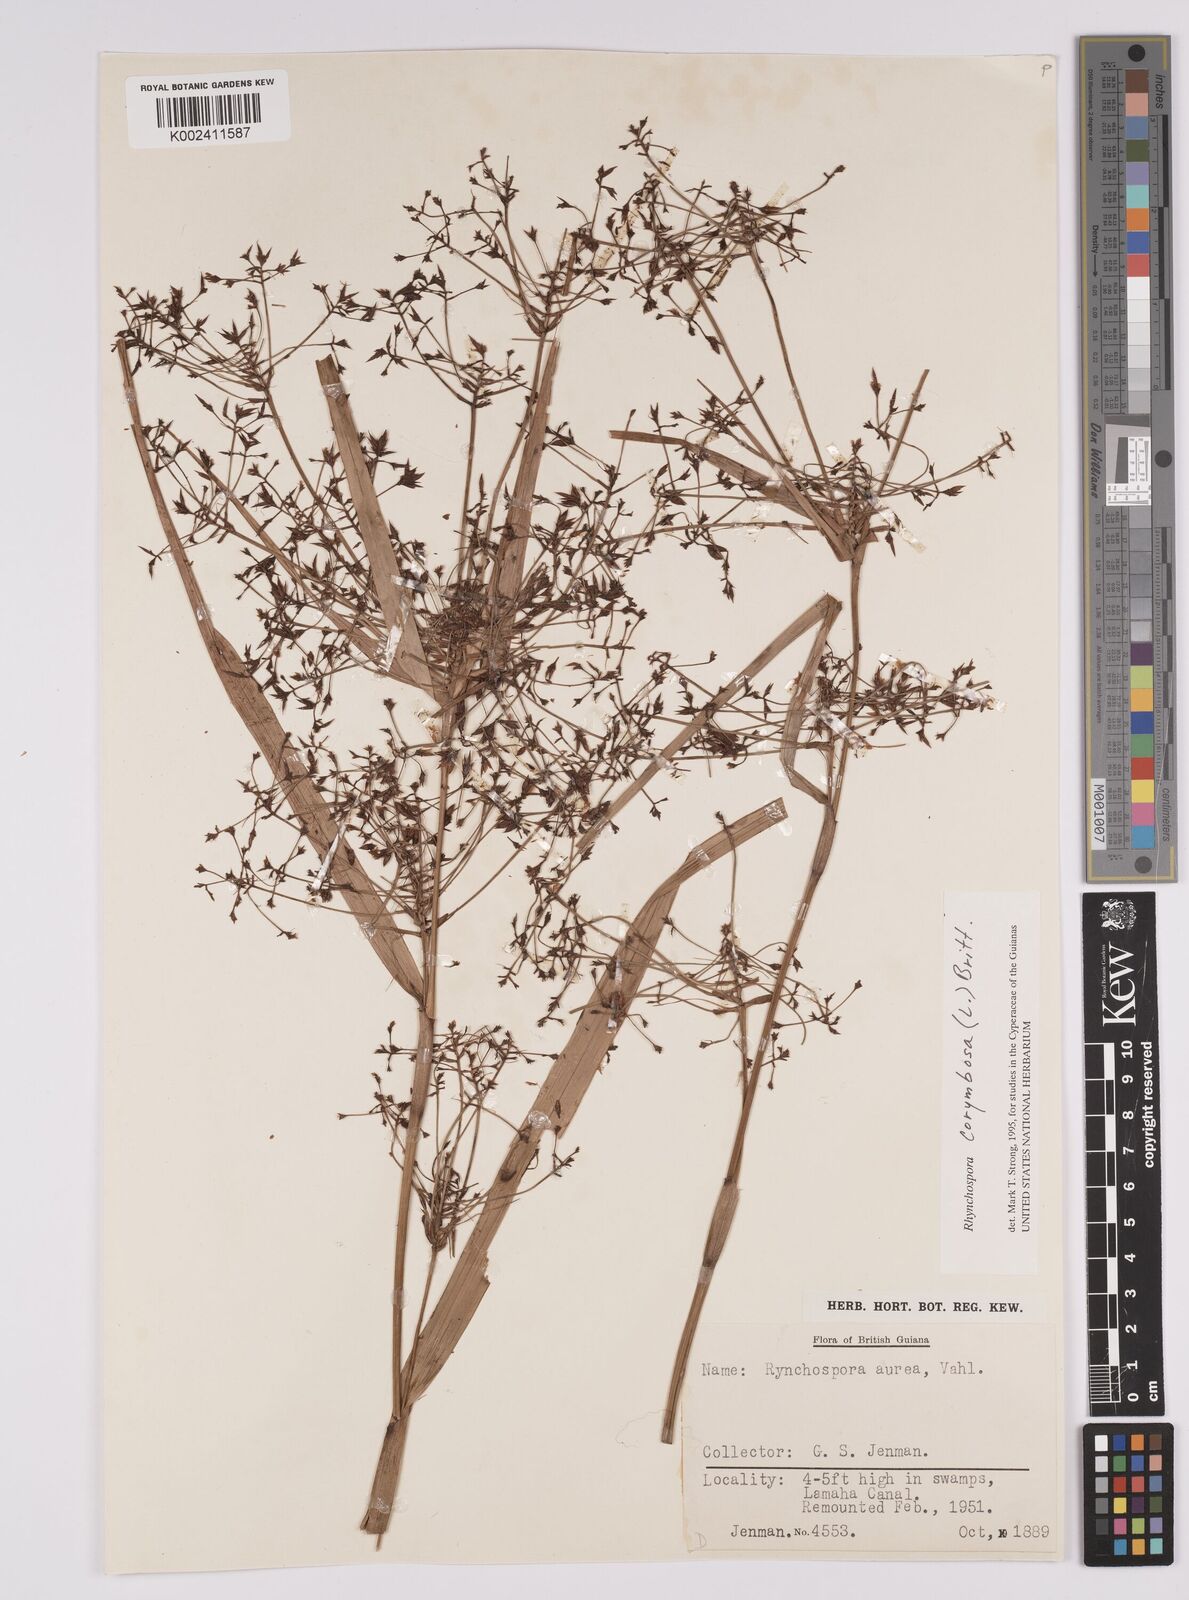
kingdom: Plantae
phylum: Tracheophyta
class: Liliopsida
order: Poales
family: Cyperaceae
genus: Rhynchospora
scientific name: Rhynchospora corymbosa
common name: Golden beak sedge
